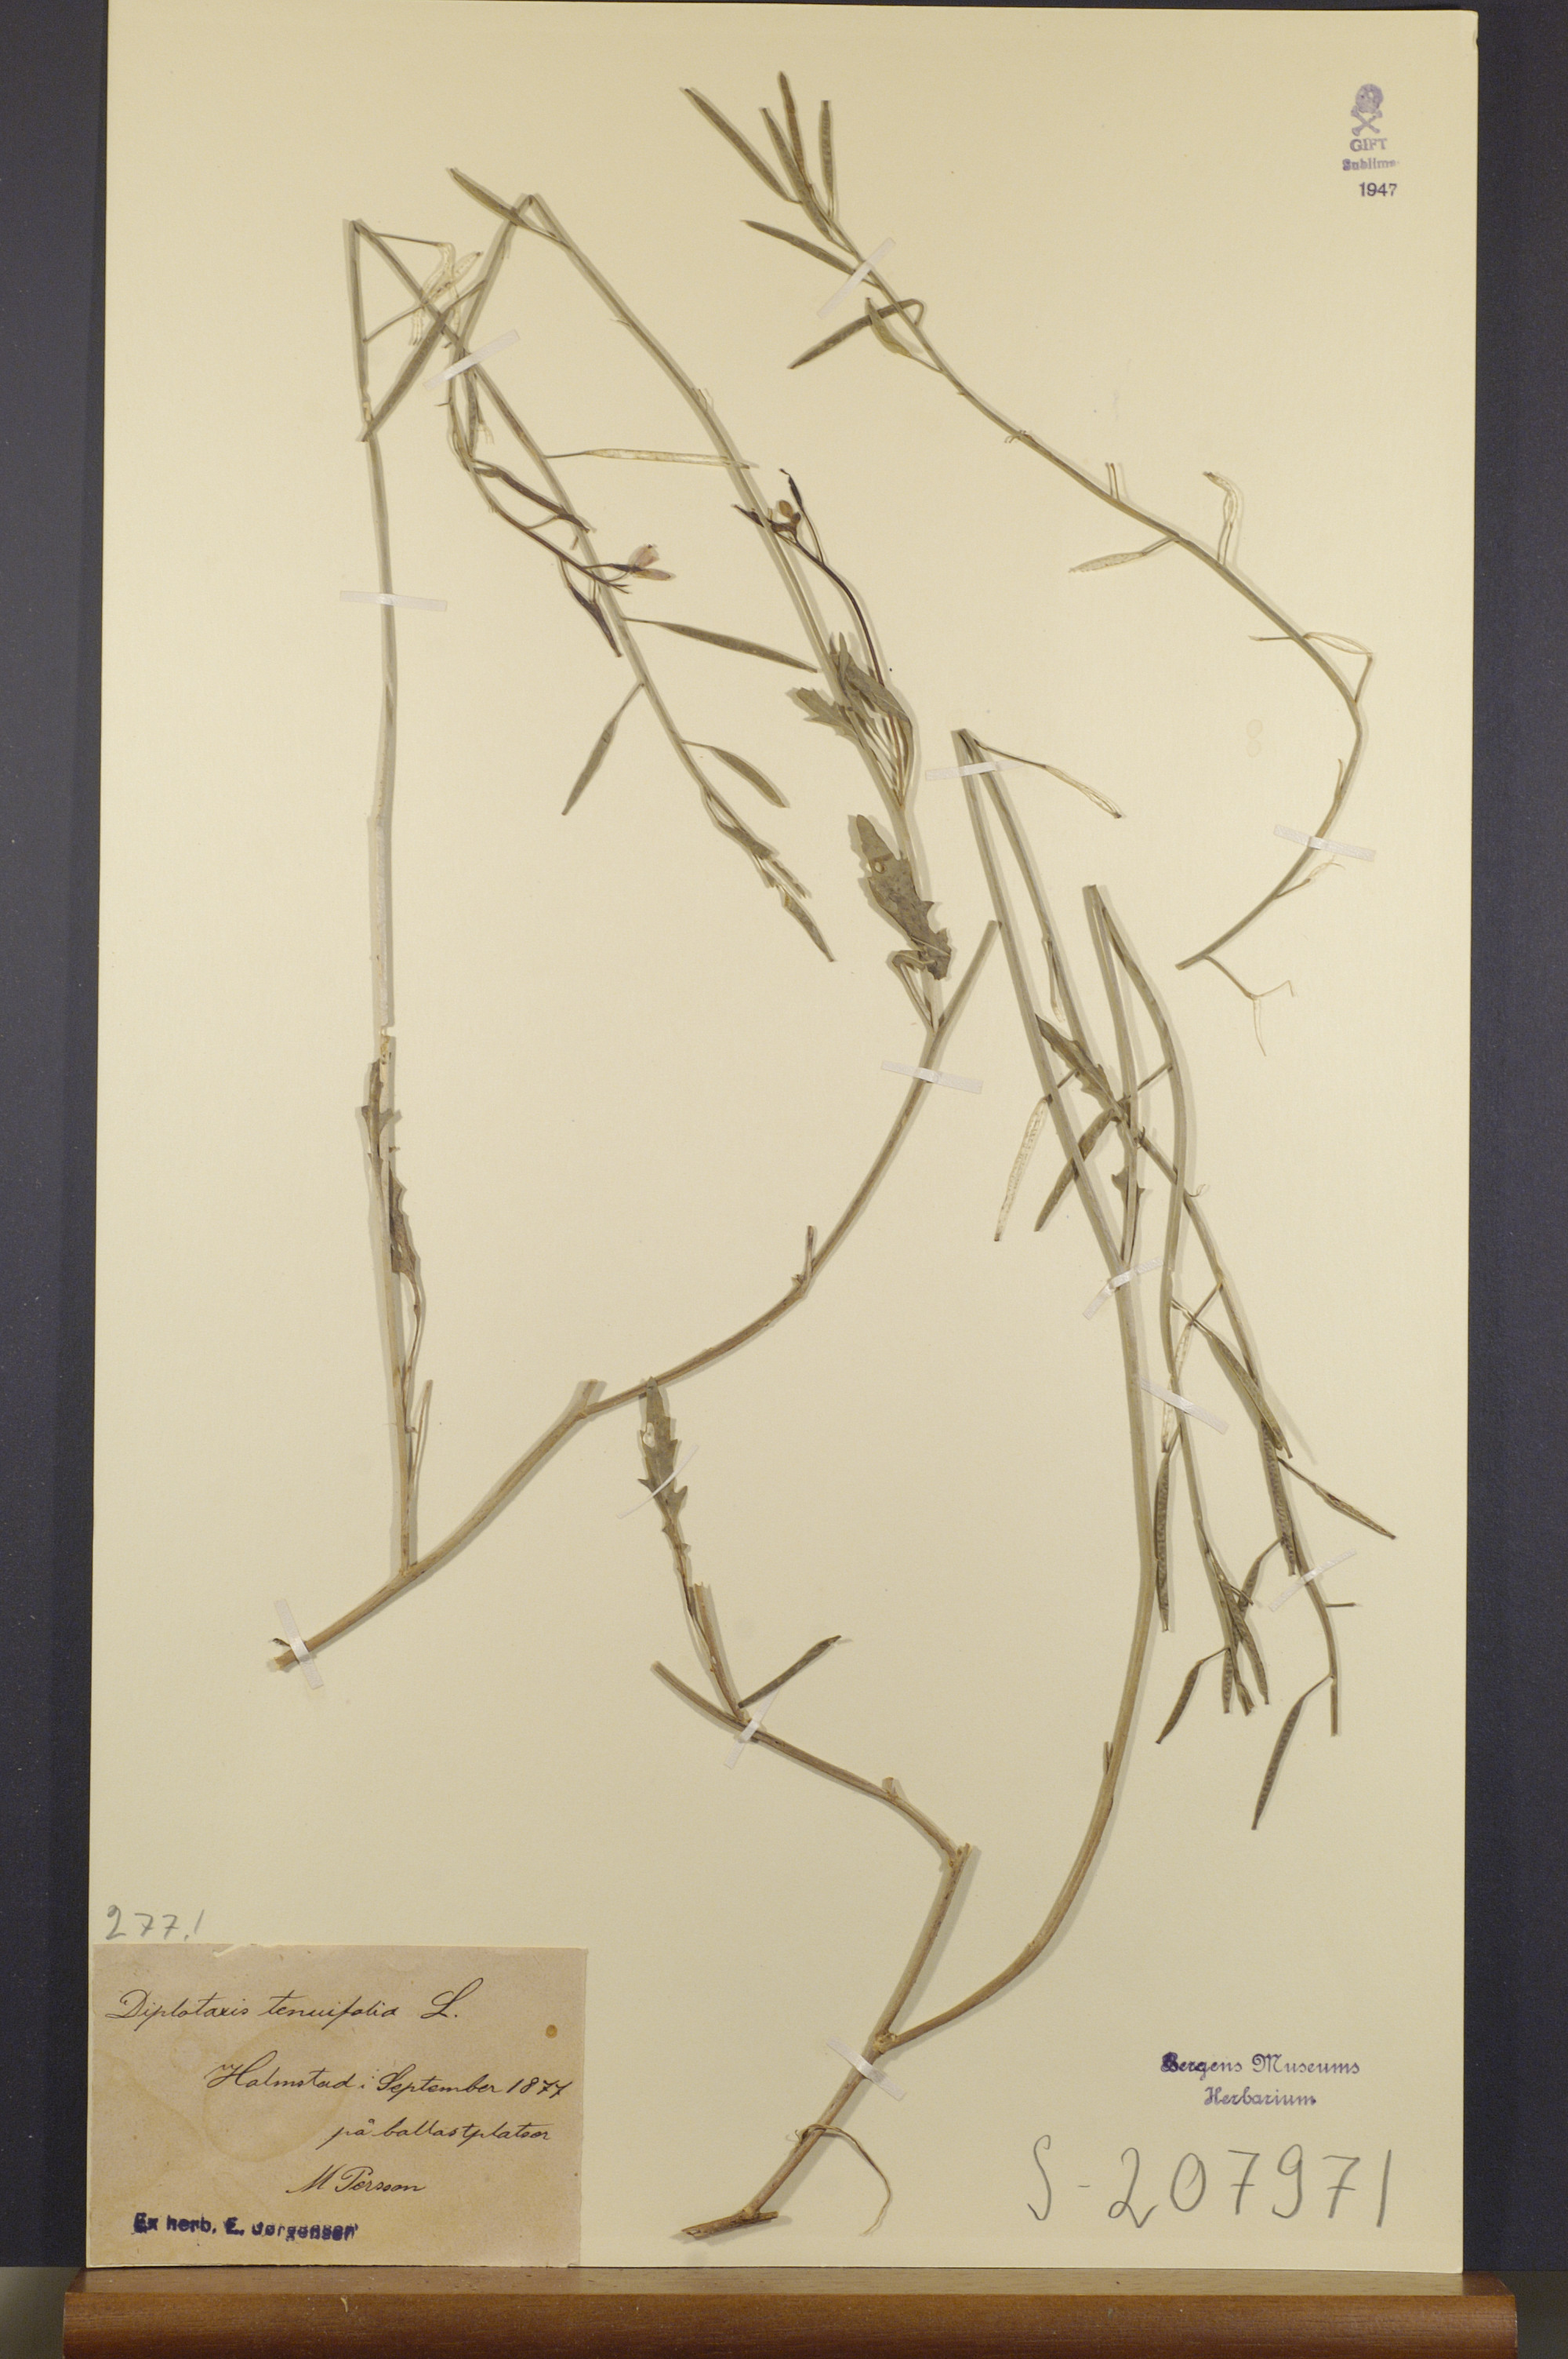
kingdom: Plantae
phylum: Tracheophyta
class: Magnoliopsida
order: Brassicales
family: Brassicaceae
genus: Diplotaxis
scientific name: Diplotaxis tenuifolia
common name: Perennial wall-rocket
